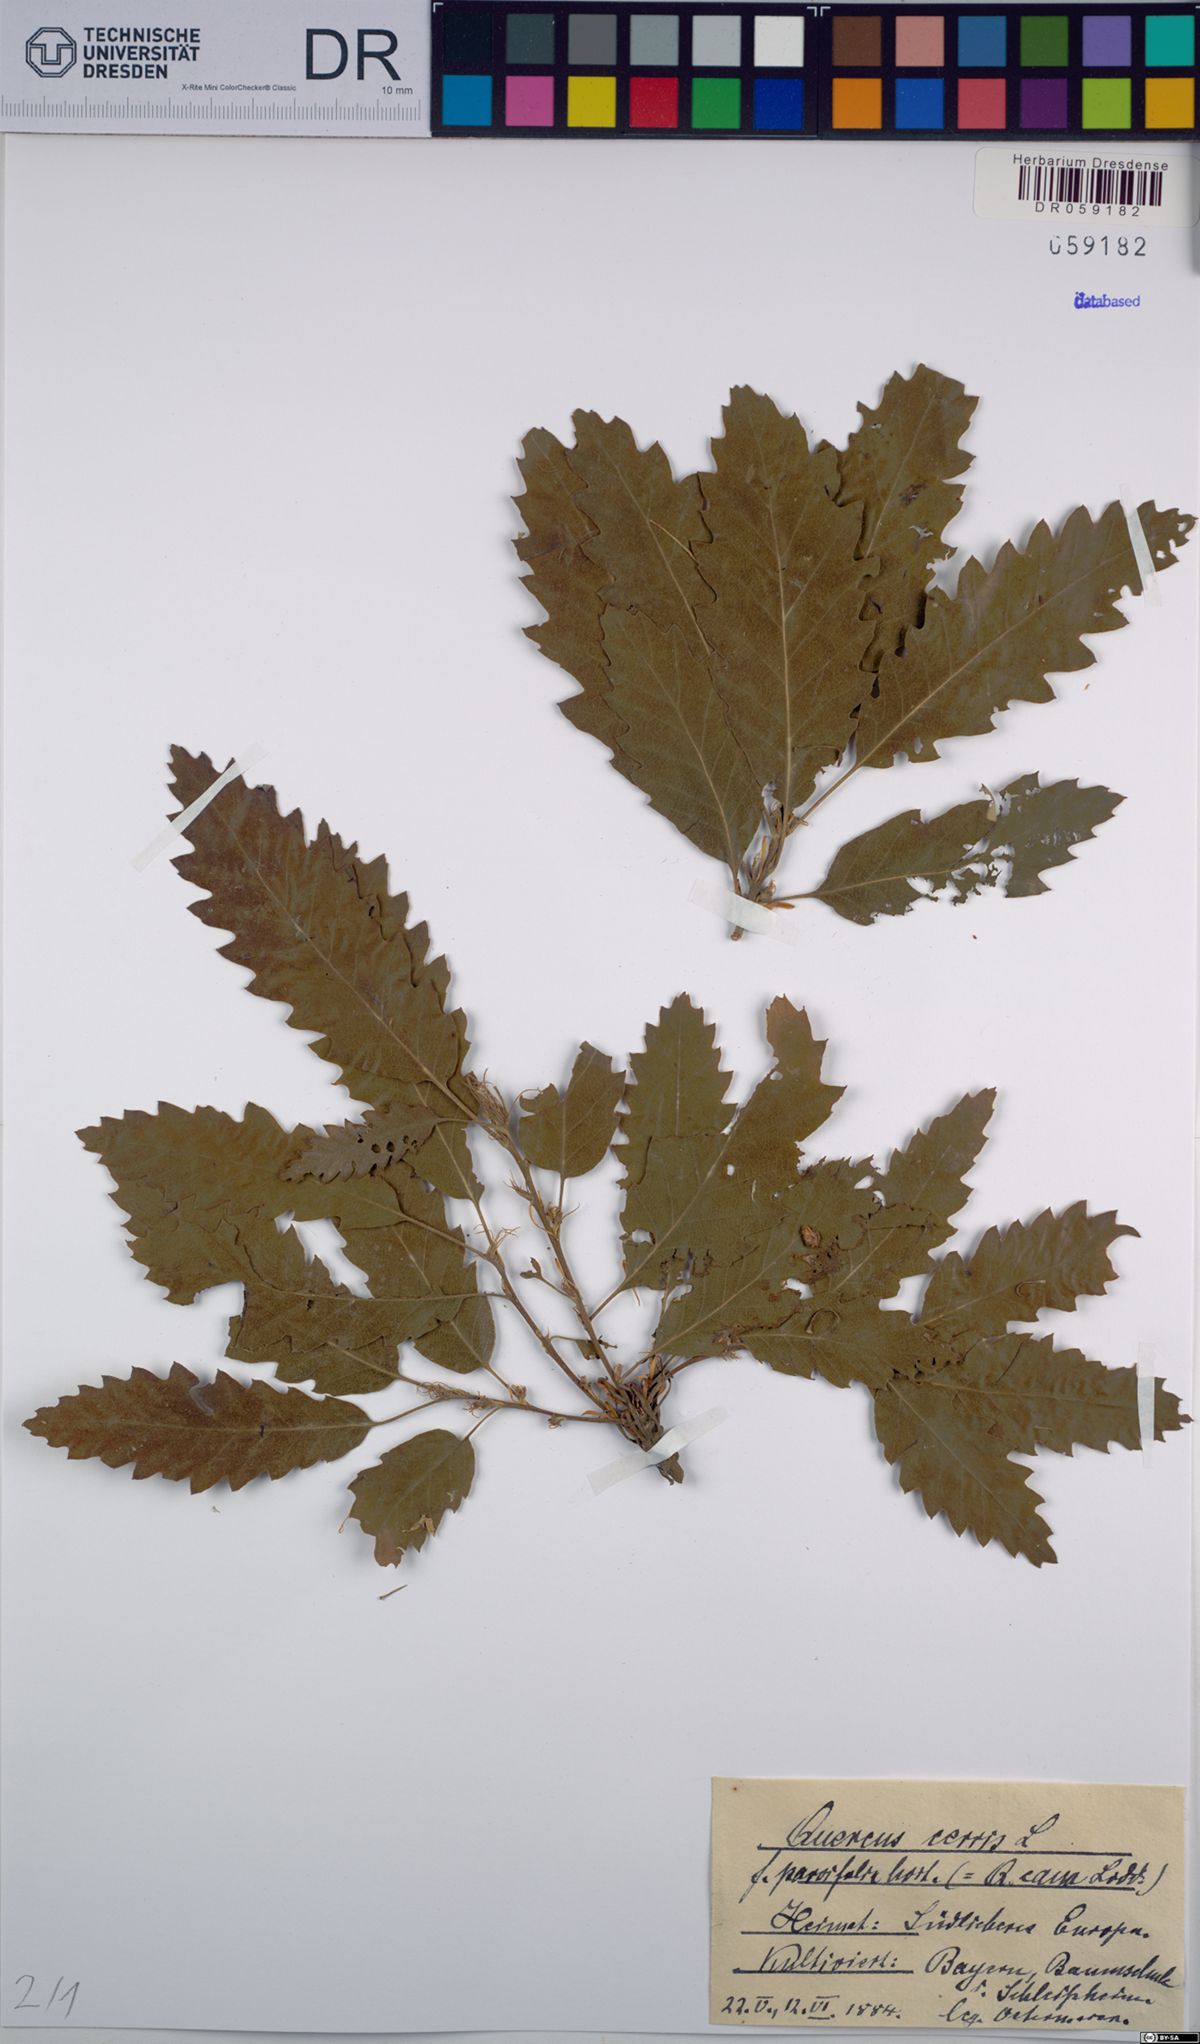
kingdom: Plantae
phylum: Tracheophyta
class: Magnoliopsida
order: Fagales
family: Fagaceae
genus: Quercus
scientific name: Quercus cerris
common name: Turkey oak
